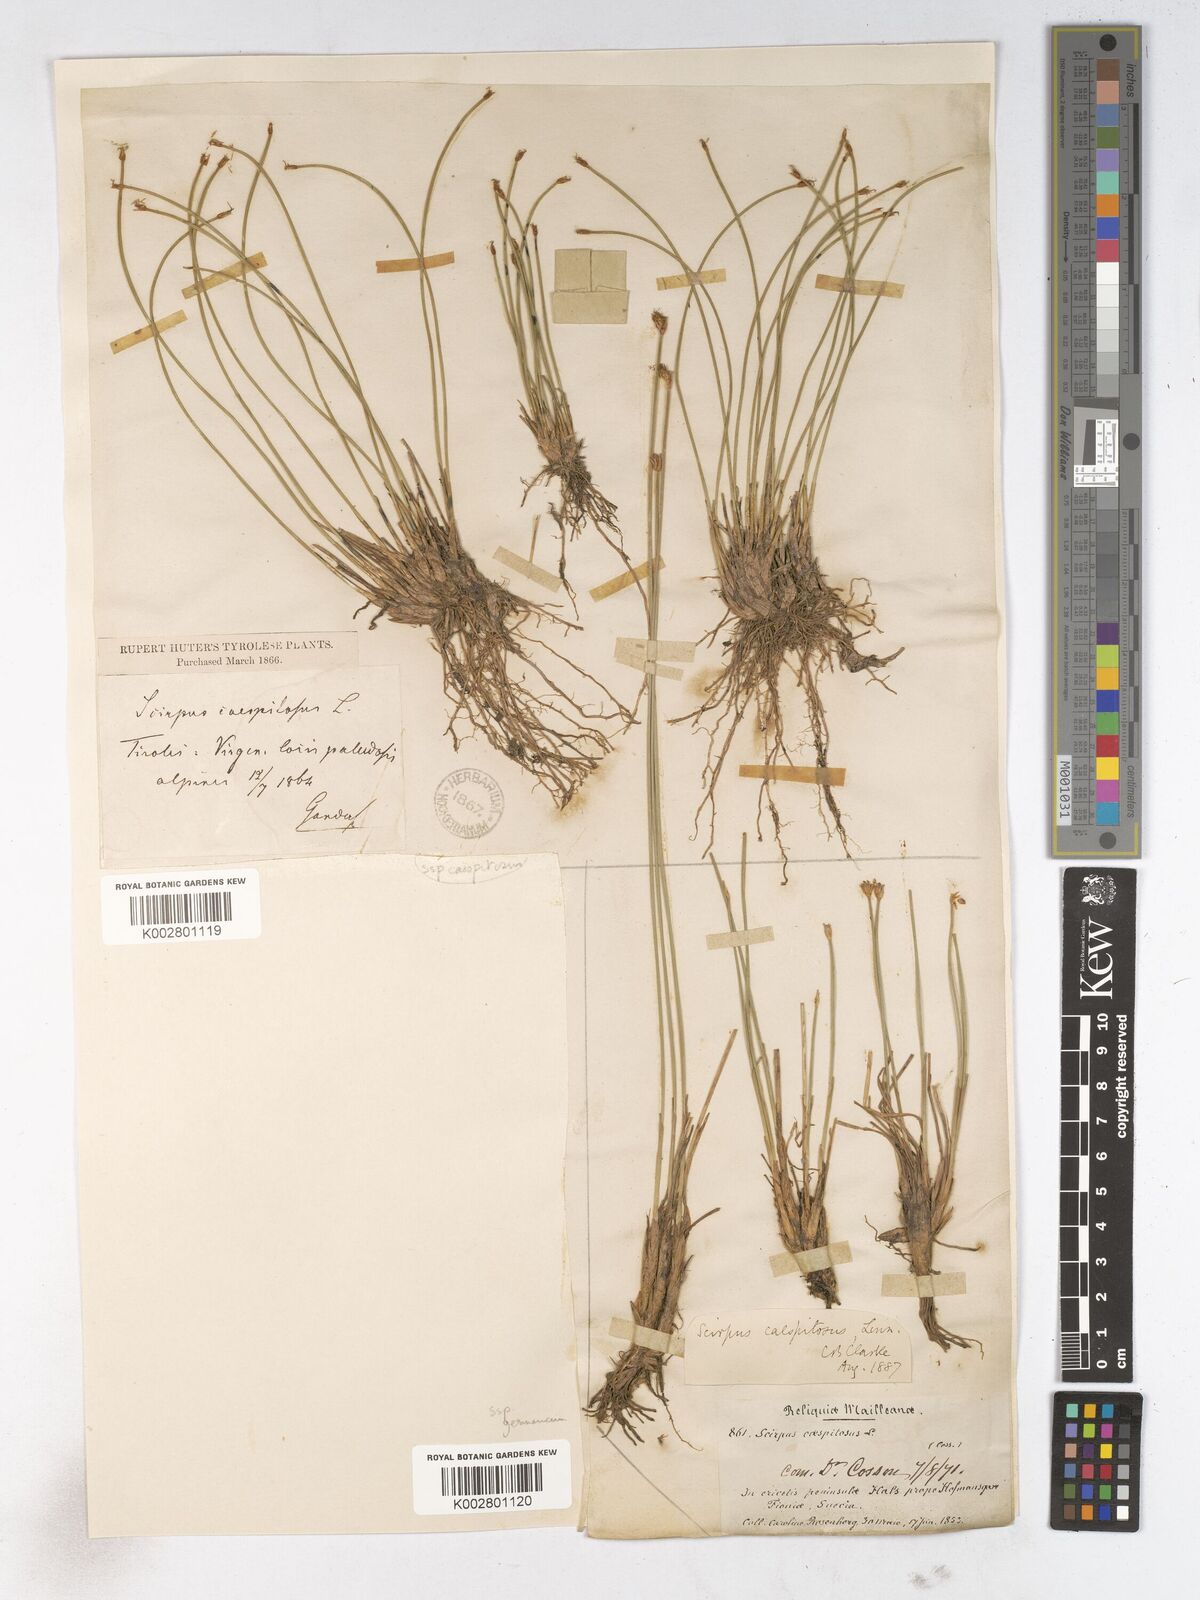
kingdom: Plantae
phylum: Tracheophyta
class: Liliopsida
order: Poales
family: Cyperaceae
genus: Trichophorum
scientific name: Trichophorum cespitosum
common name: Cespitose bulrush
